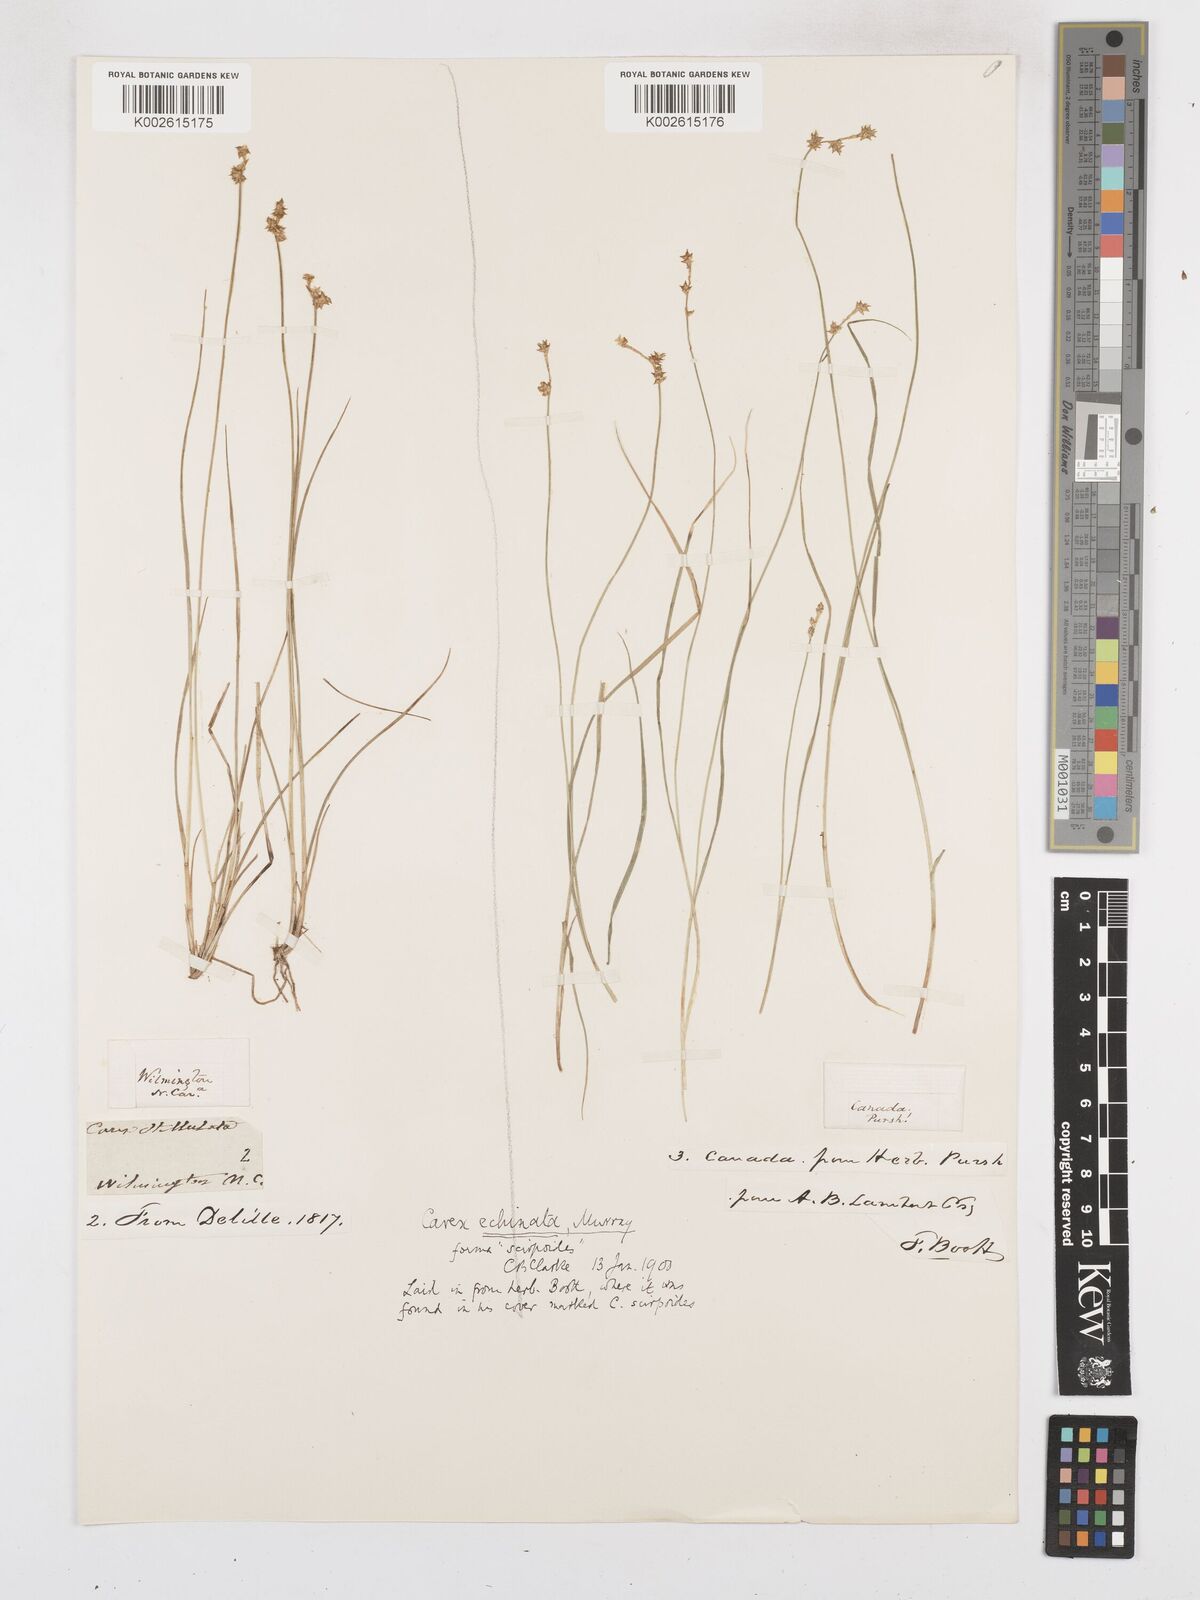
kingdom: Plantae
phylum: Tracheophyta
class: Liliopsida
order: Poales
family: Cyperaceae
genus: Carex
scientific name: Carex echinata
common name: Star sedge
